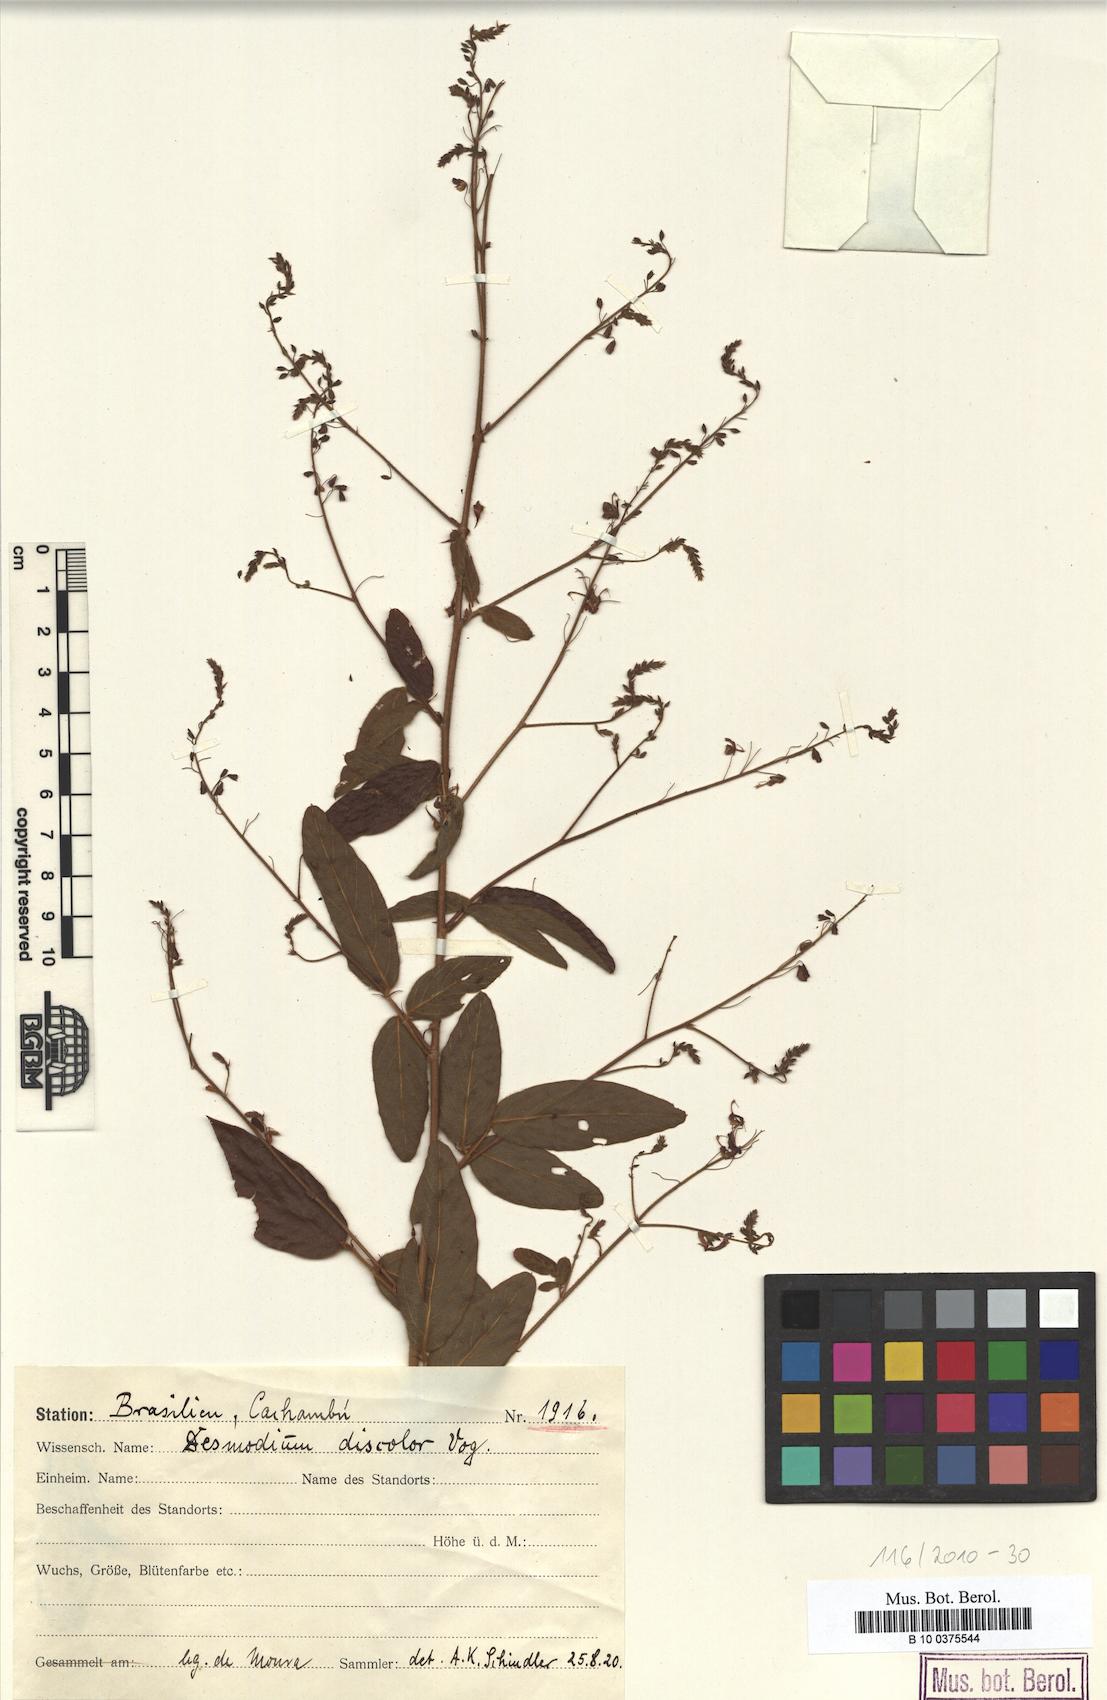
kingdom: Plantae
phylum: Tracheophyta
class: Magnoliopsida
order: Fabales
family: Fabaceae
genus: Desmodium
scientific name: Desmodium subsecundum
